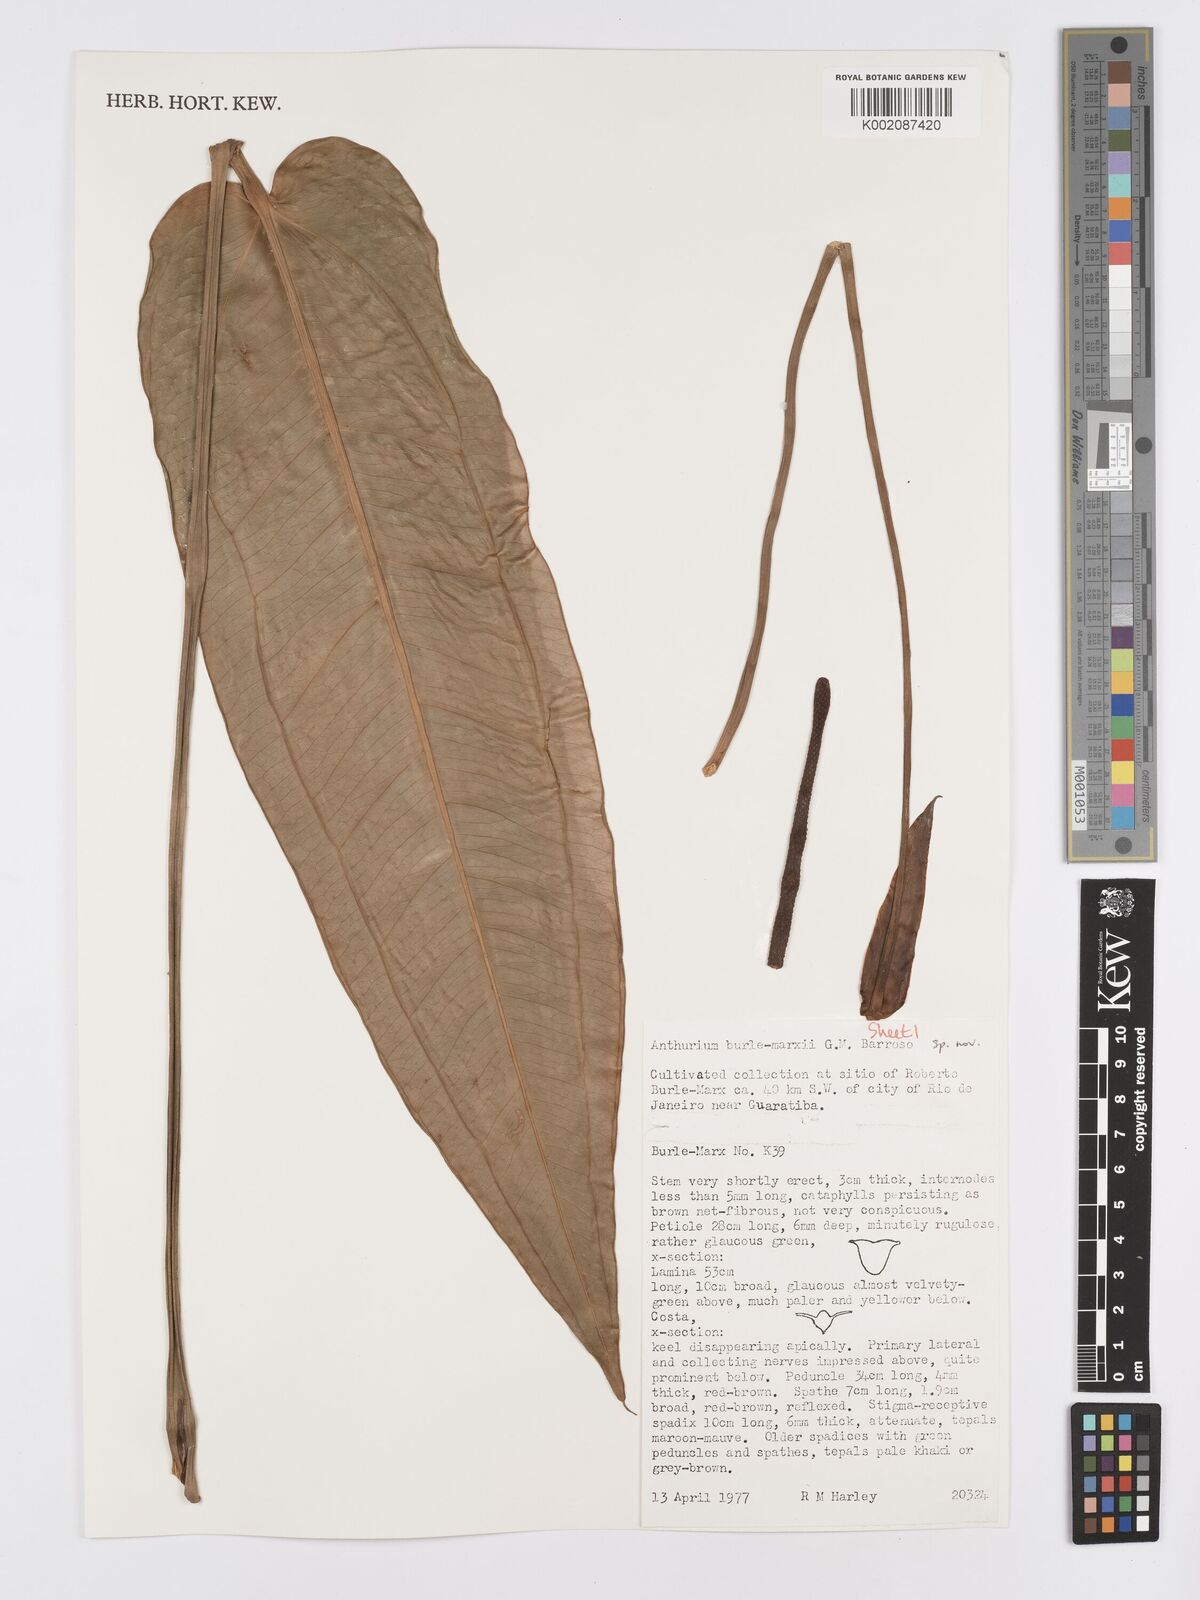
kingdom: Plantae
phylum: Tracheophyta
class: Liliopsida
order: Alismatales
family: Araceae
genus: Anthurium
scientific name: Anthurium
